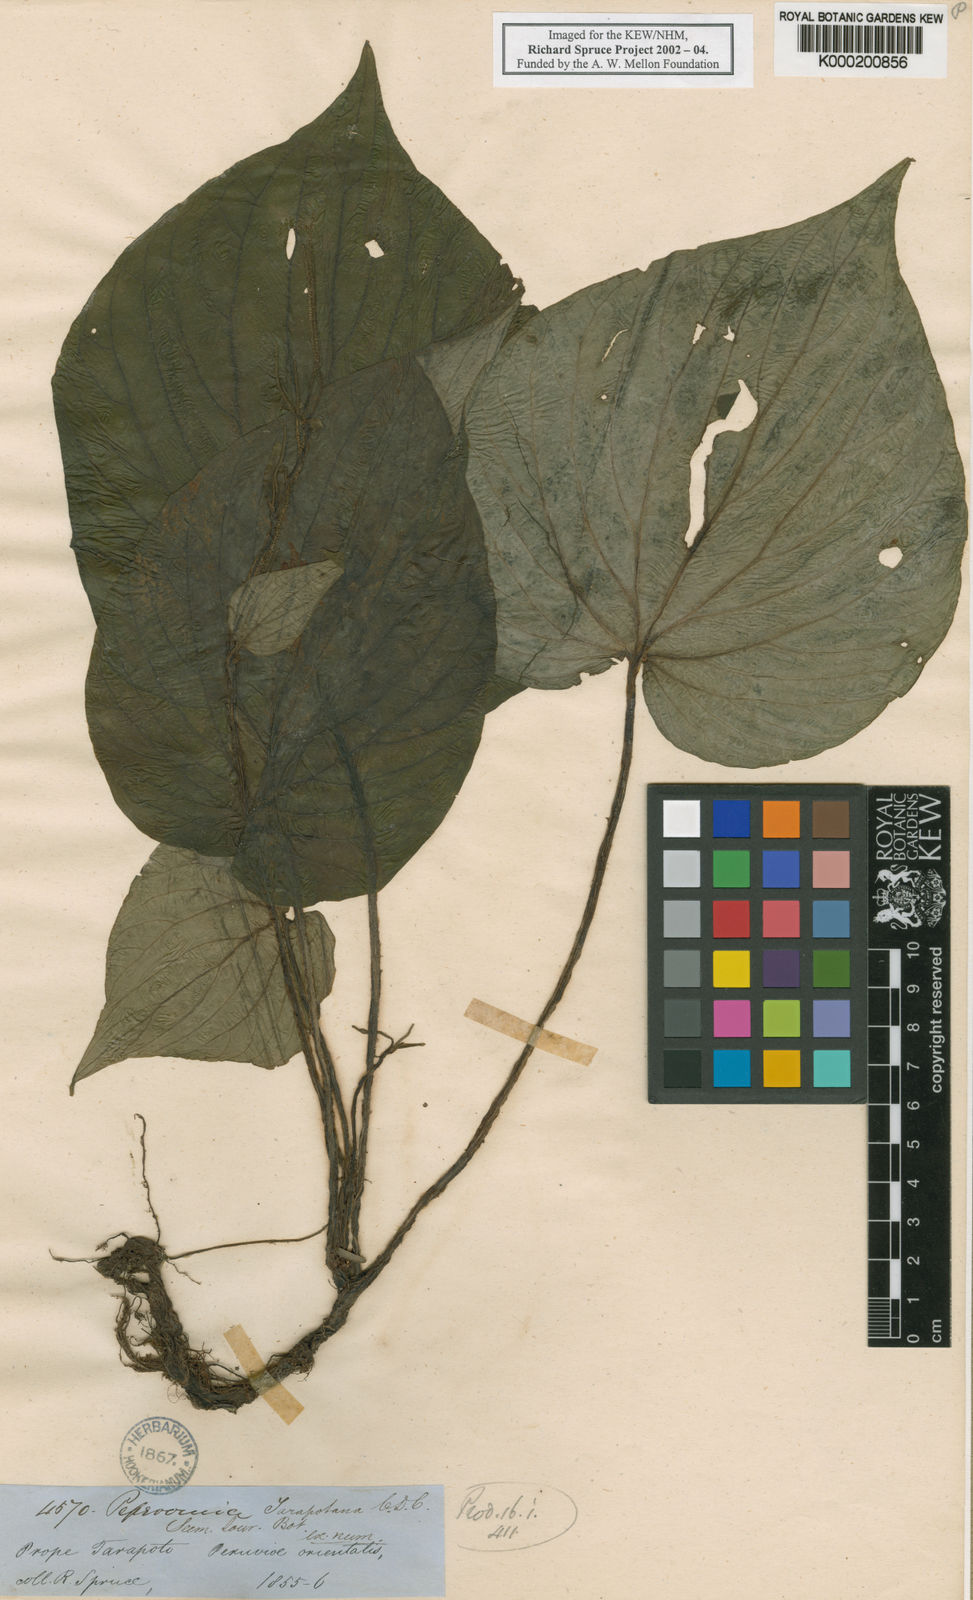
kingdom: Plantae
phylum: Tracheophyta
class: Magnoliopsida
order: Piperales
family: Piperaceae
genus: Peperomia
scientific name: Peperomia tarapotana
